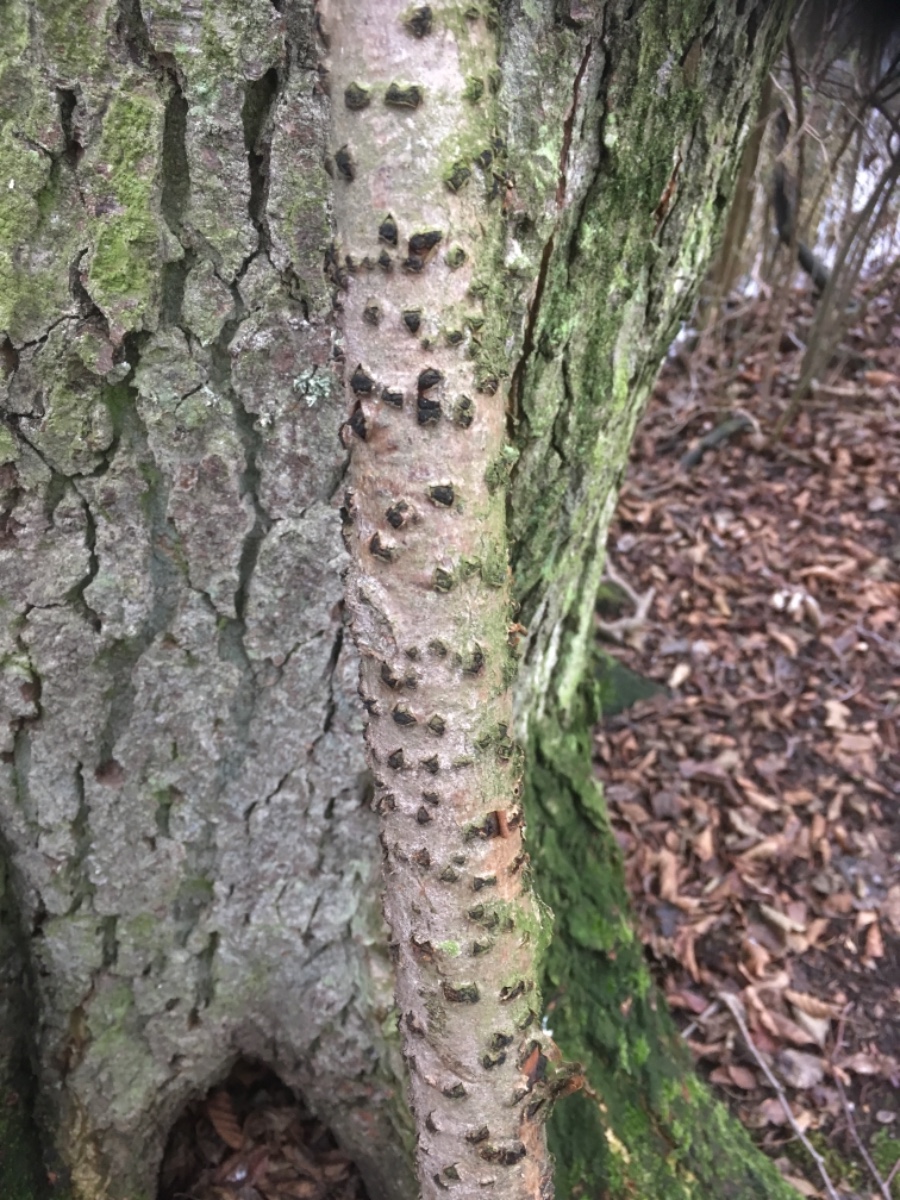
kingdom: Fungi
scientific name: Fungi
